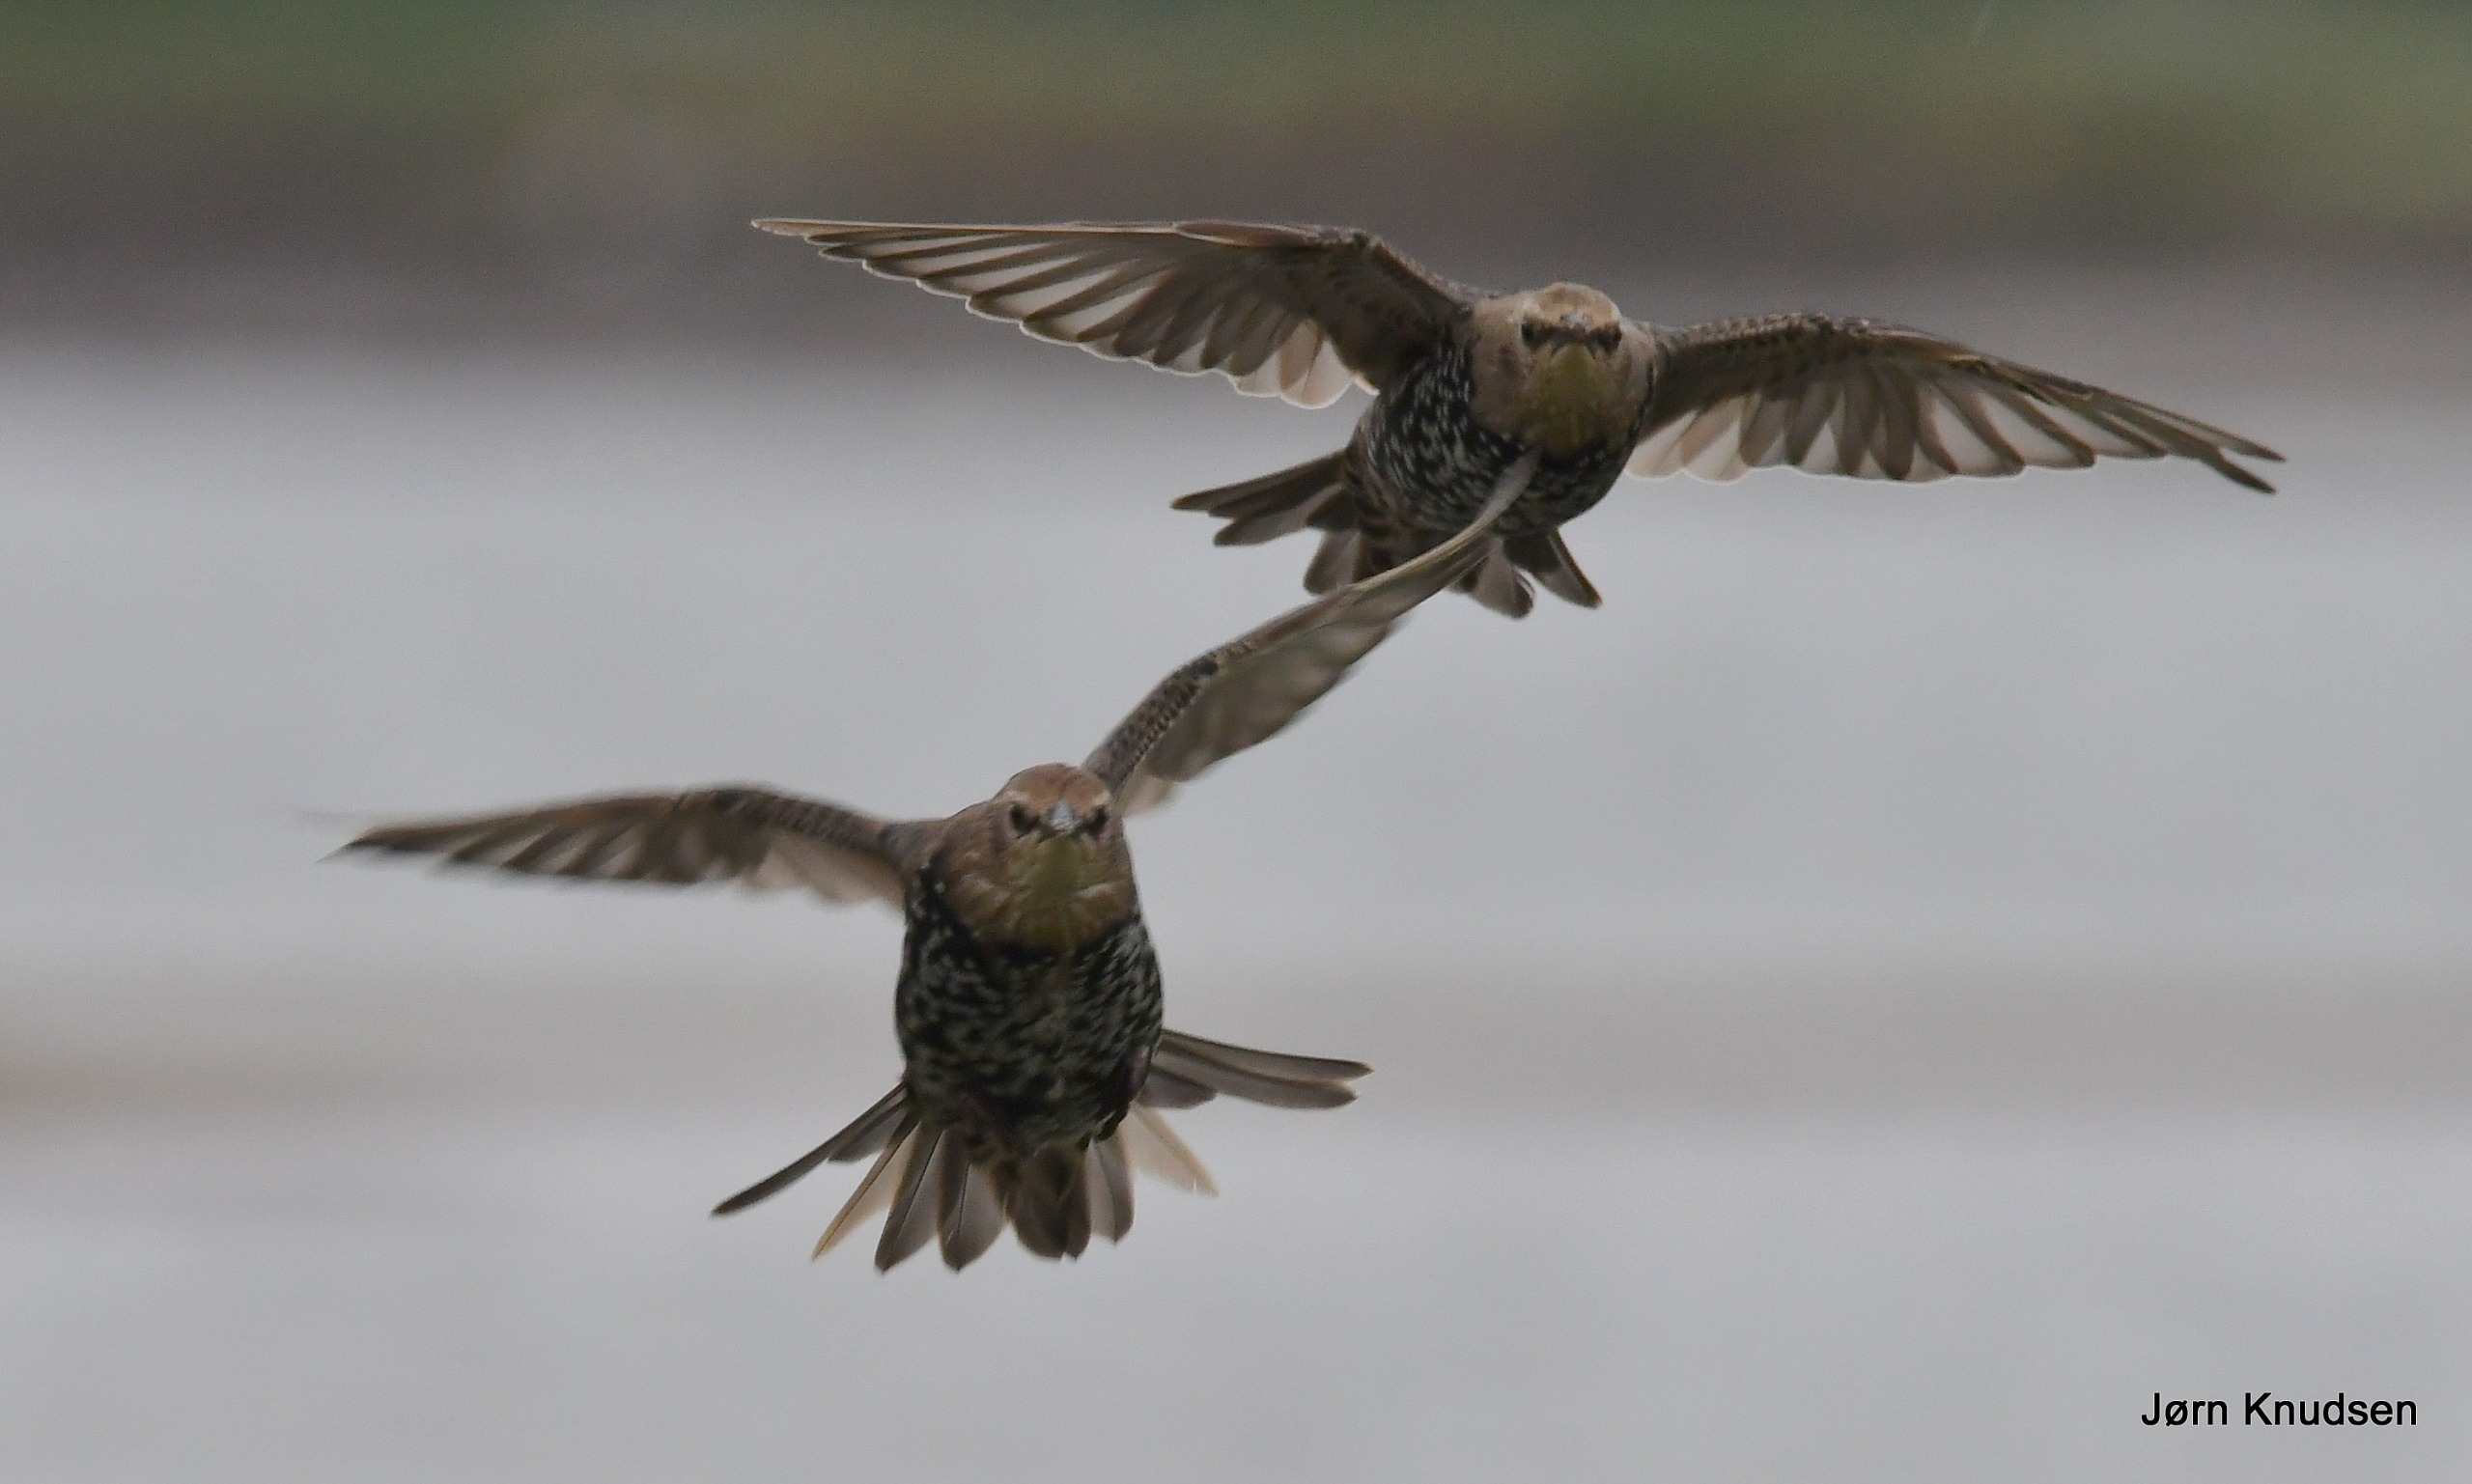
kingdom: Animalia
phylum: Chordata
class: Aves
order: Passeriformes
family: Sturnidae
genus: Sturnus
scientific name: Sturnus vulgaris
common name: Stær
